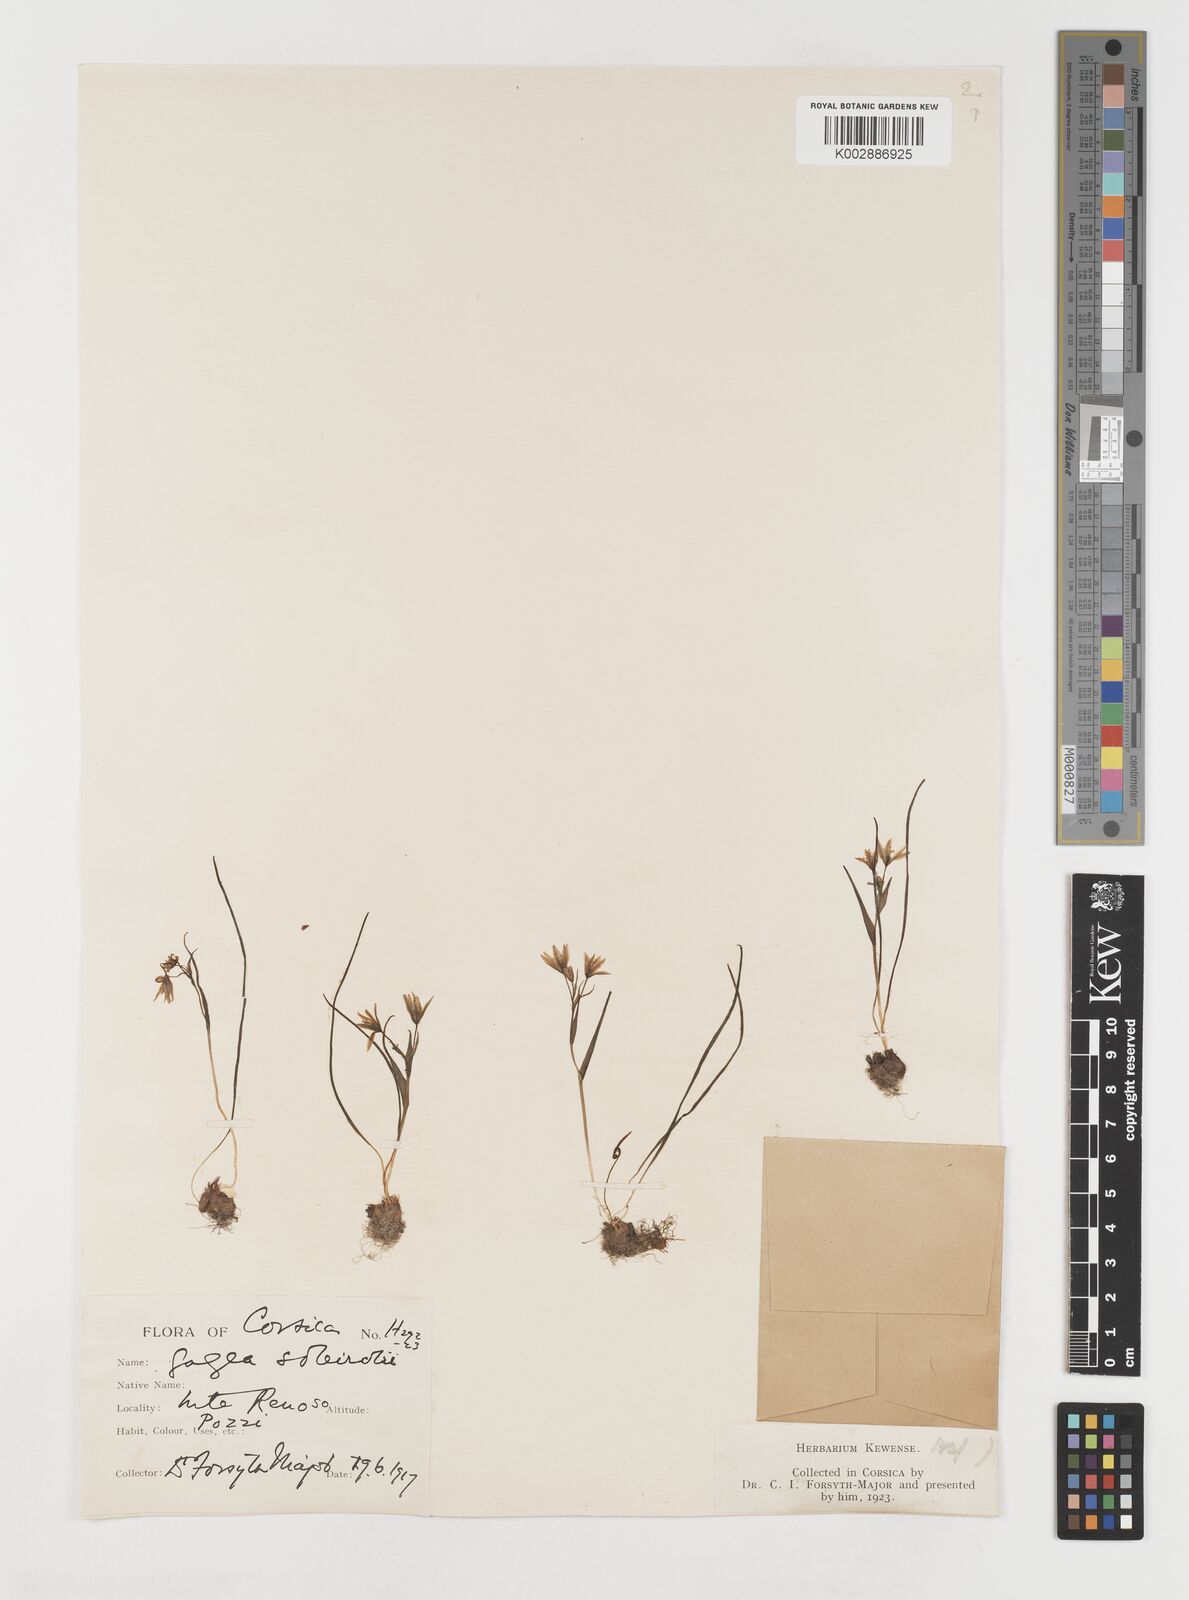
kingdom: Plantae
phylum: Tracheophyta
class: Liliopsida
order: Liliales
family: Liliaceae
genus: Gagea
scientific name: Gagea soleirolii
